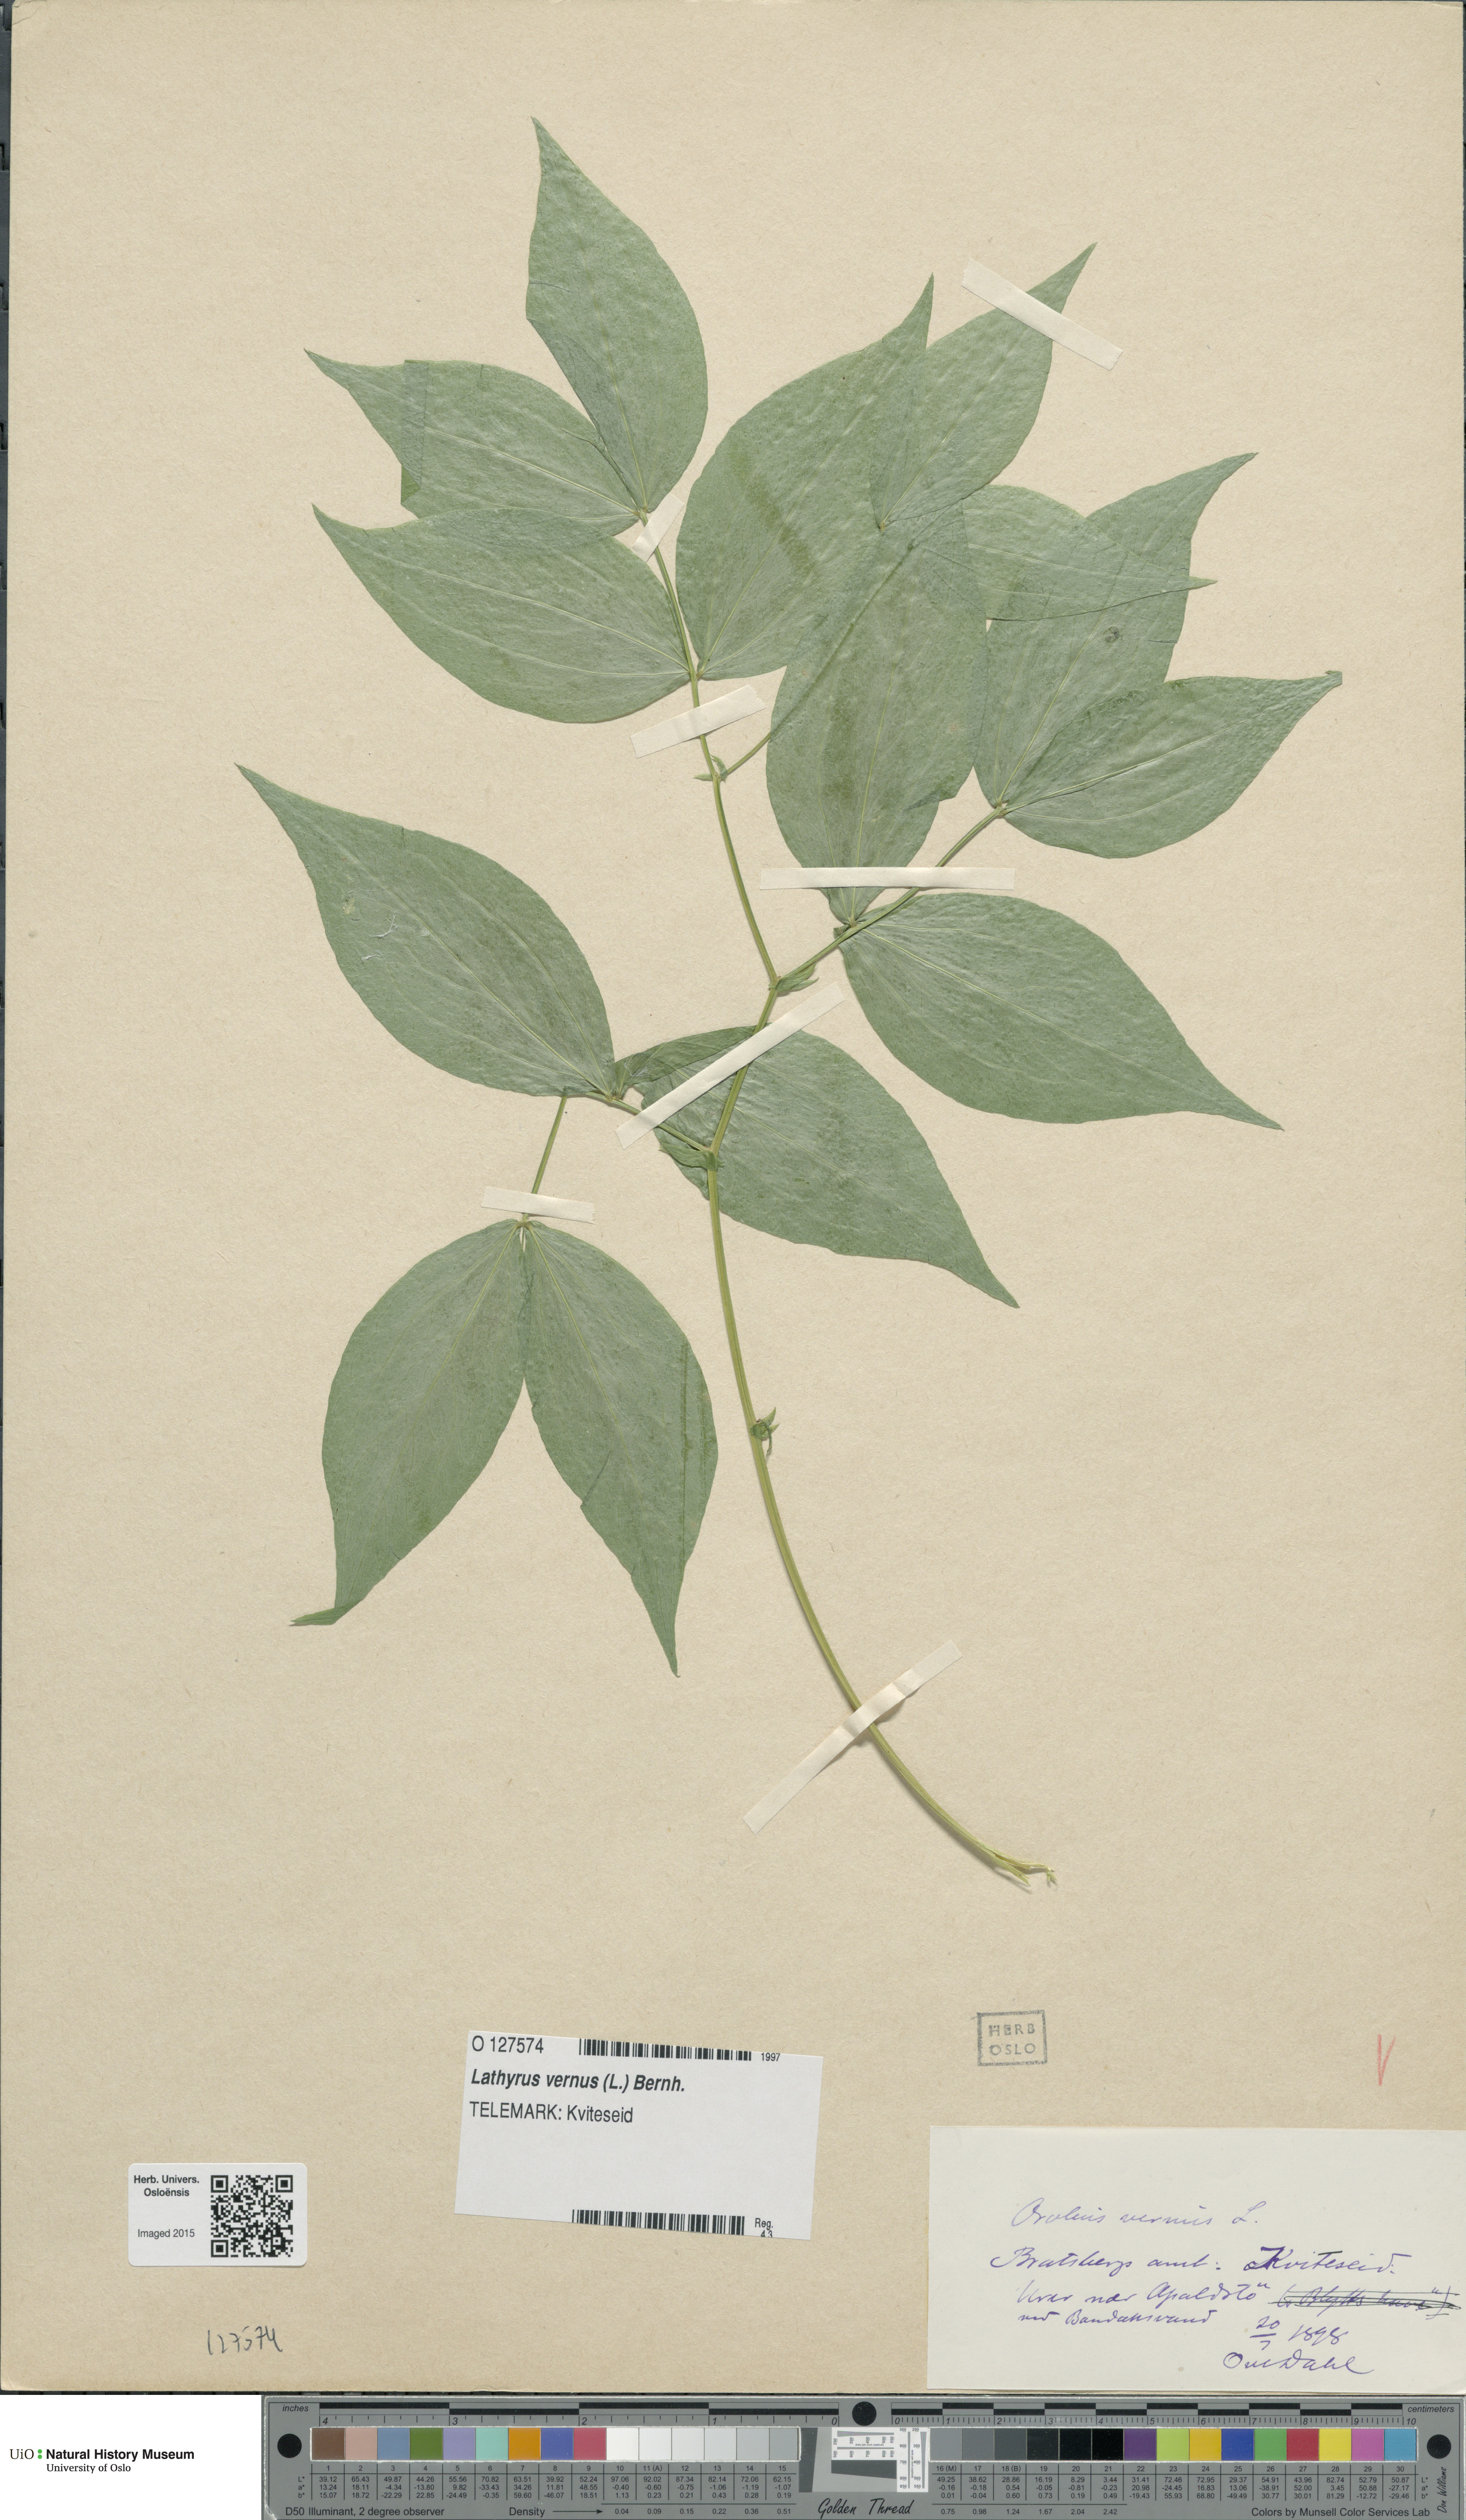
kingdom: Plantae
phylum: Tracheophyta
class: Magnoliopsida
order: Fabales
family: Fabaceae
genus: Lathyrus
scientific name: Lathyrus vernus
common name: Spring pea
